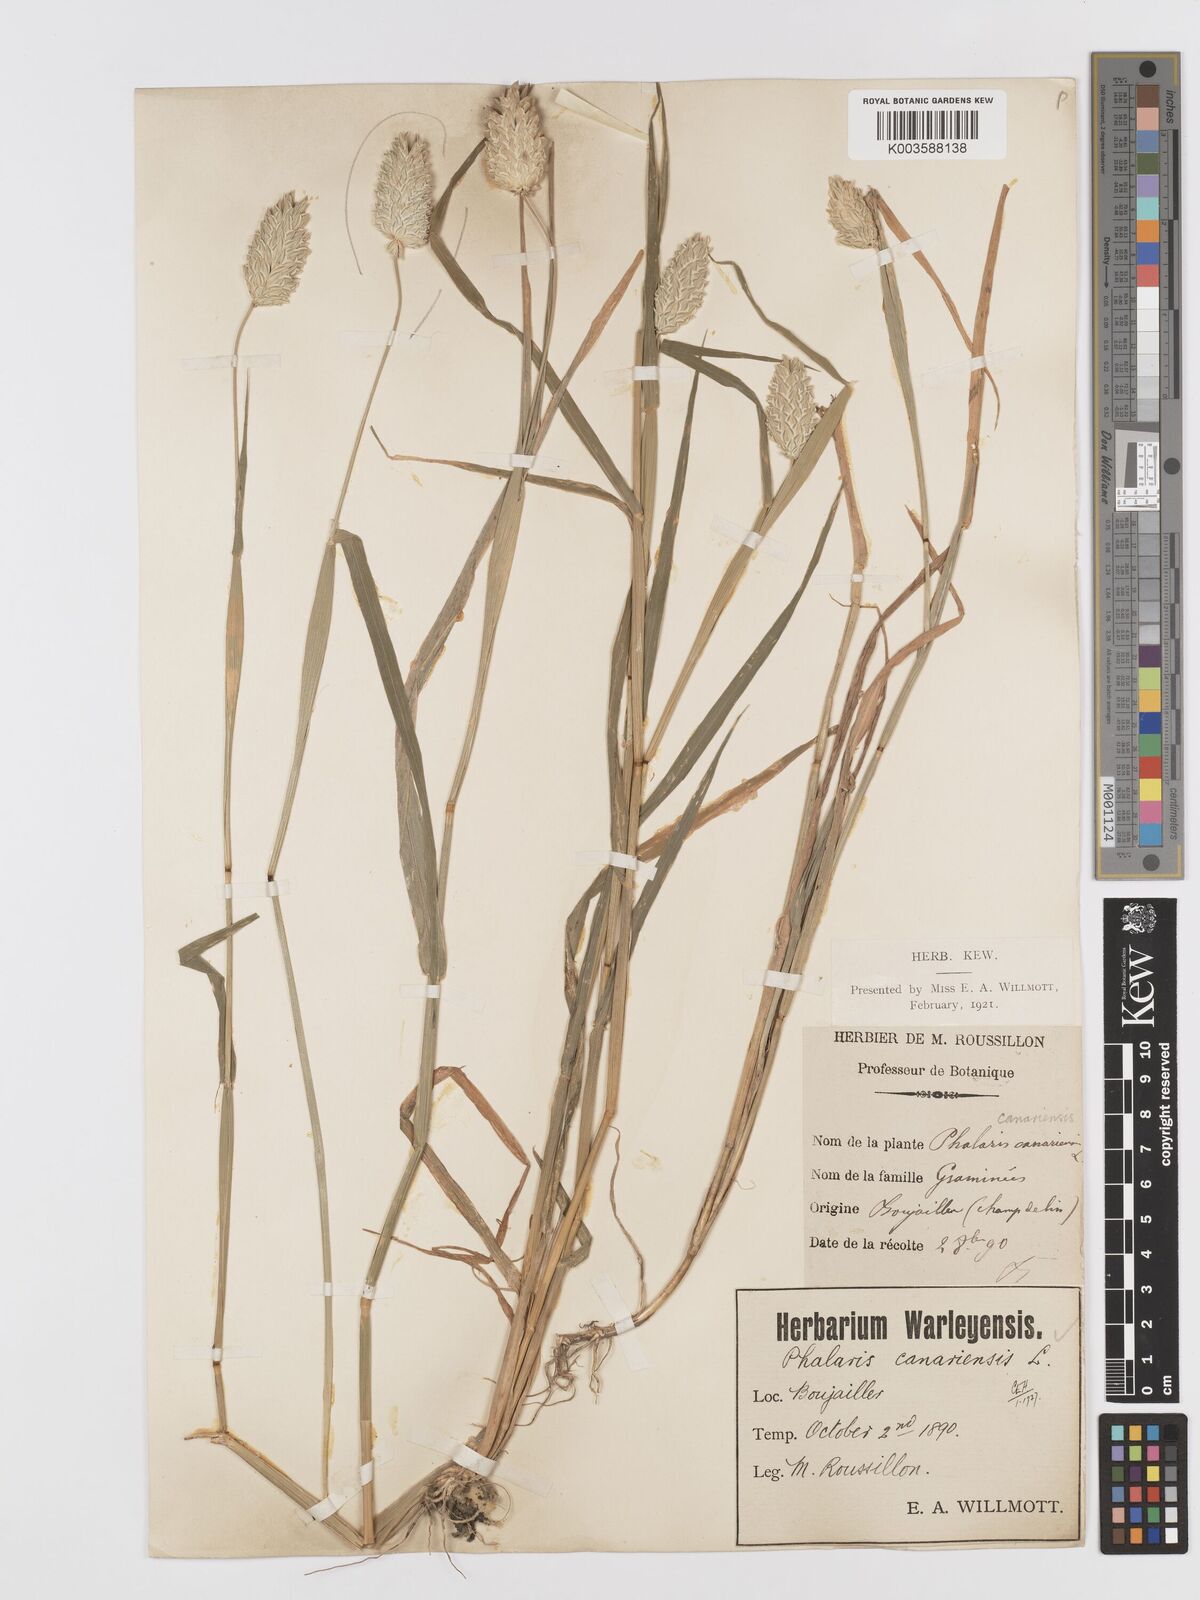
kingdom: Plantae
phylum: Tracheophyta
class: Liliopsida
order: Poales
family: Poaceae
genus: Phalaris
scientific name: Phalaris canariensis
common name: Annual canarygrass
